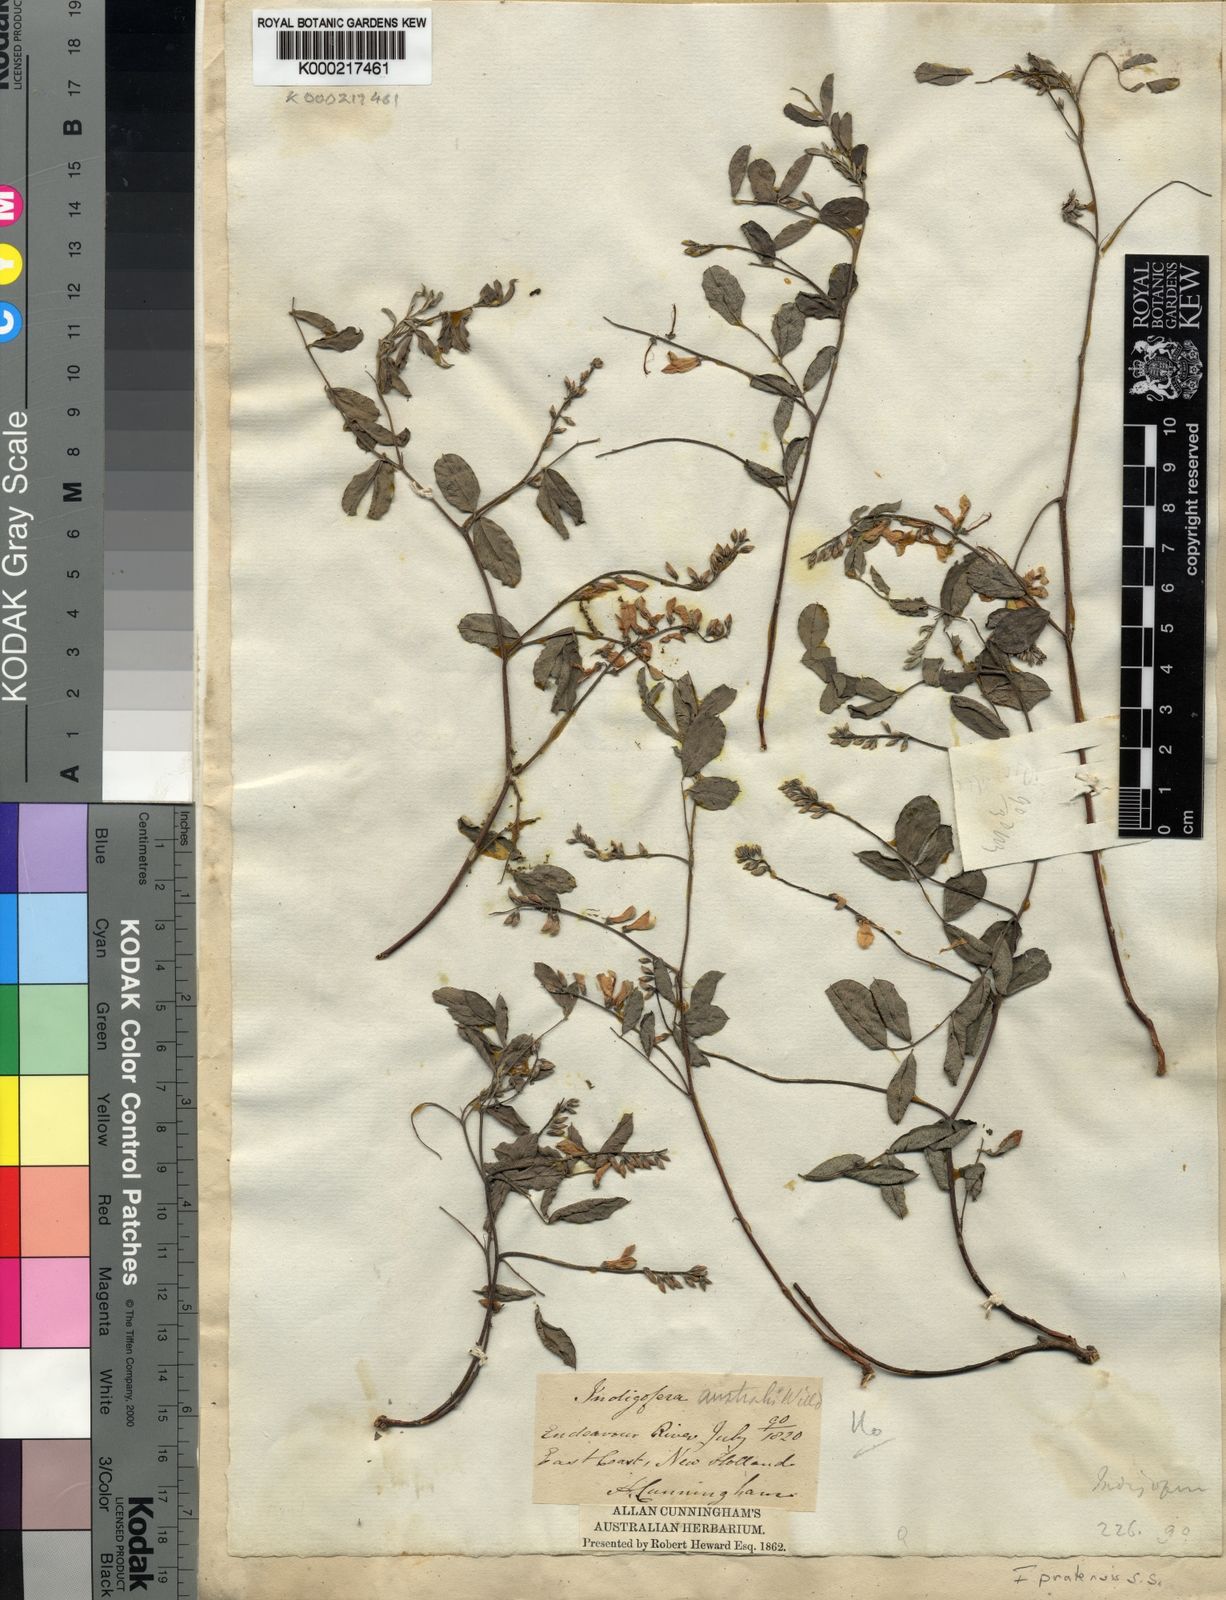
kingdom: Plantae
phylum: Tracheophyta
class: Magnoliopsida
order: Fabales
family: Fabaceae
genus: Indigofera
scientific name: Indigofera pratensis
